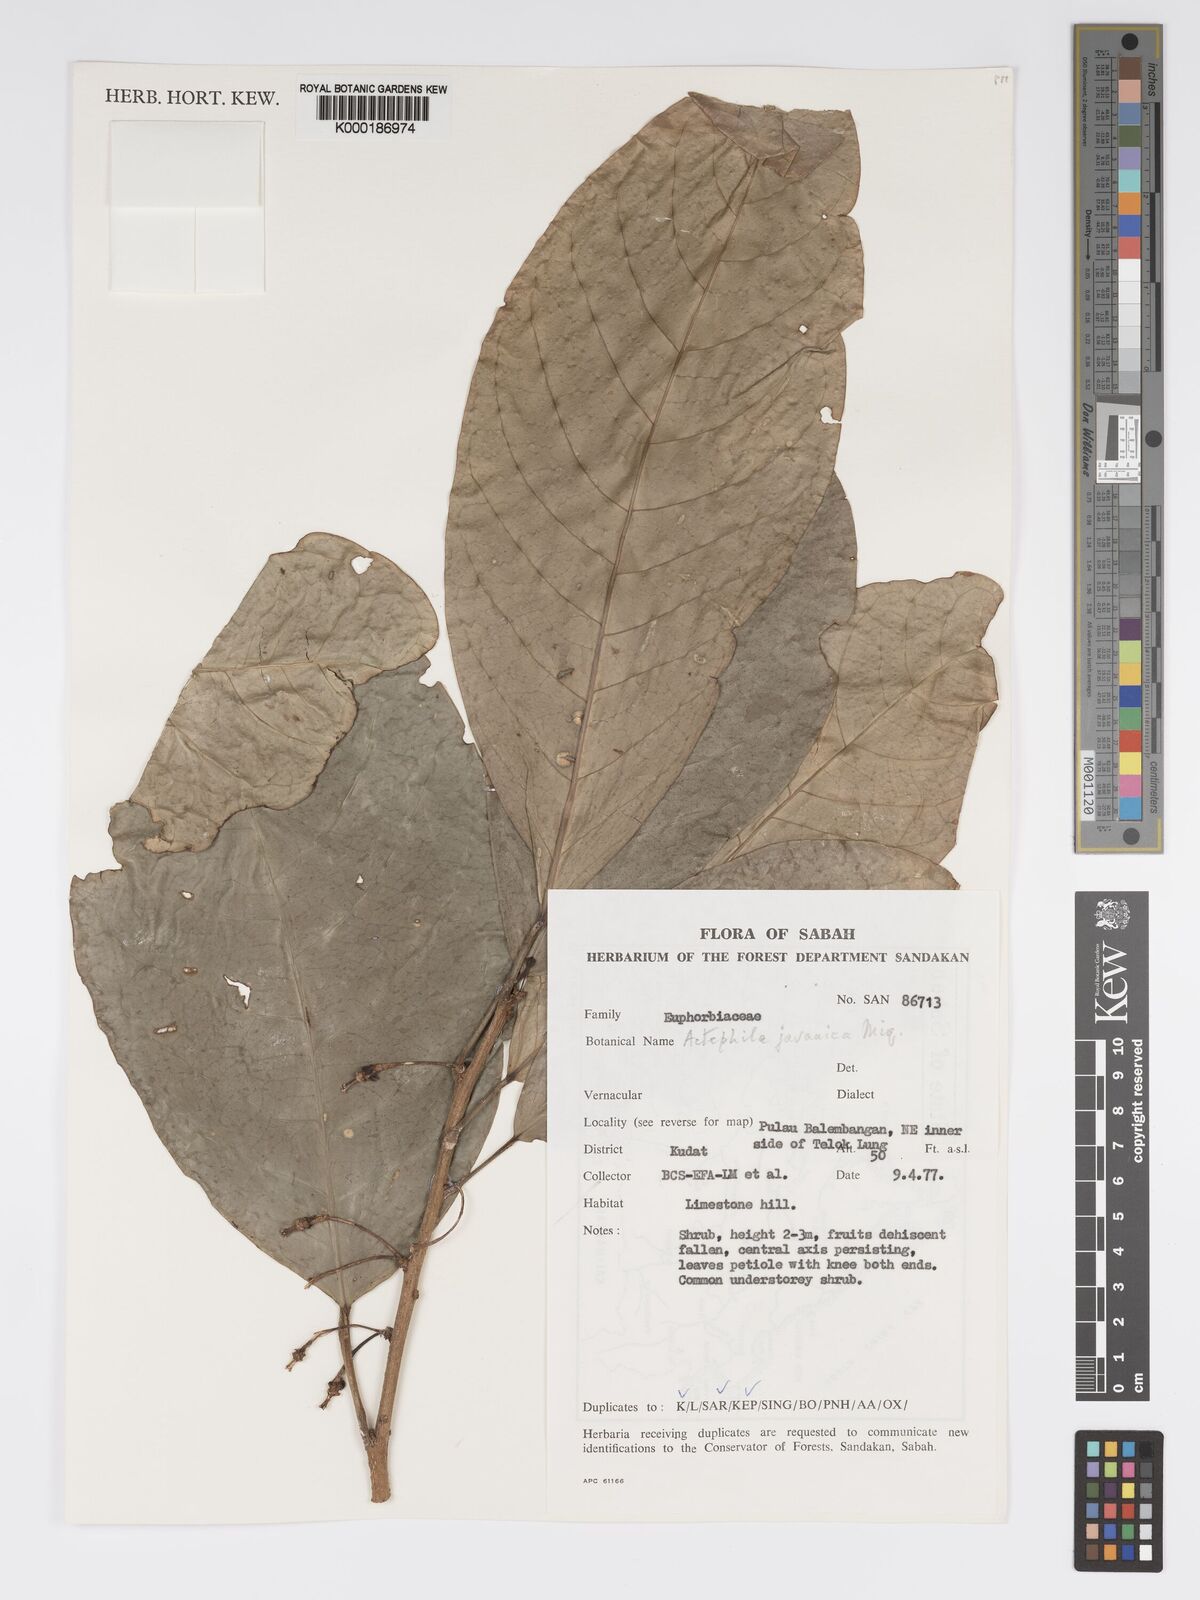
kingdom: Plantae
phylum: Tracheophyta
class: Magnoliopsida
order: Malpighiales
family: Phyllanthaceae
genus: Actephila
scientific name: Actephila
